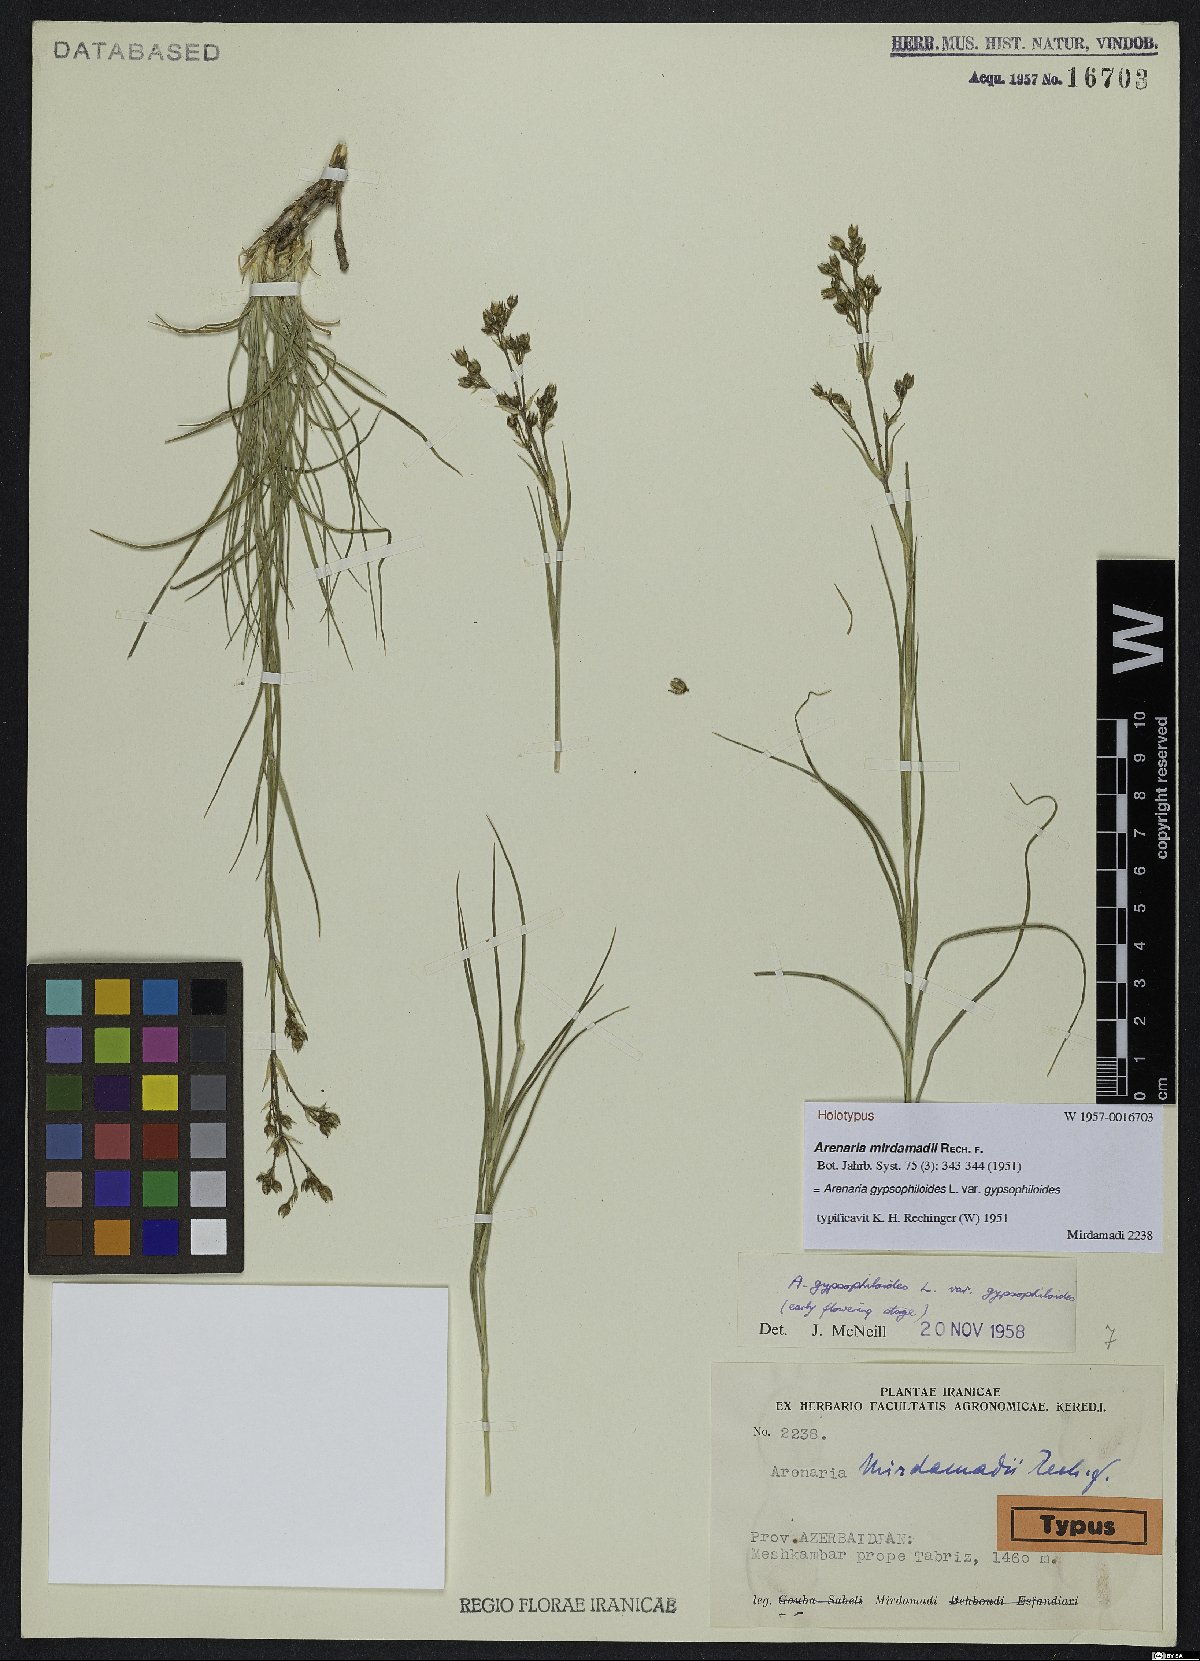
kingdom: Plantae
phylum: Tracheophyta
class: Magnoliopsida
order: Caryophyllales
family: Caryophyllaceae
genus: Eremogone
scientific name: Eremogone
